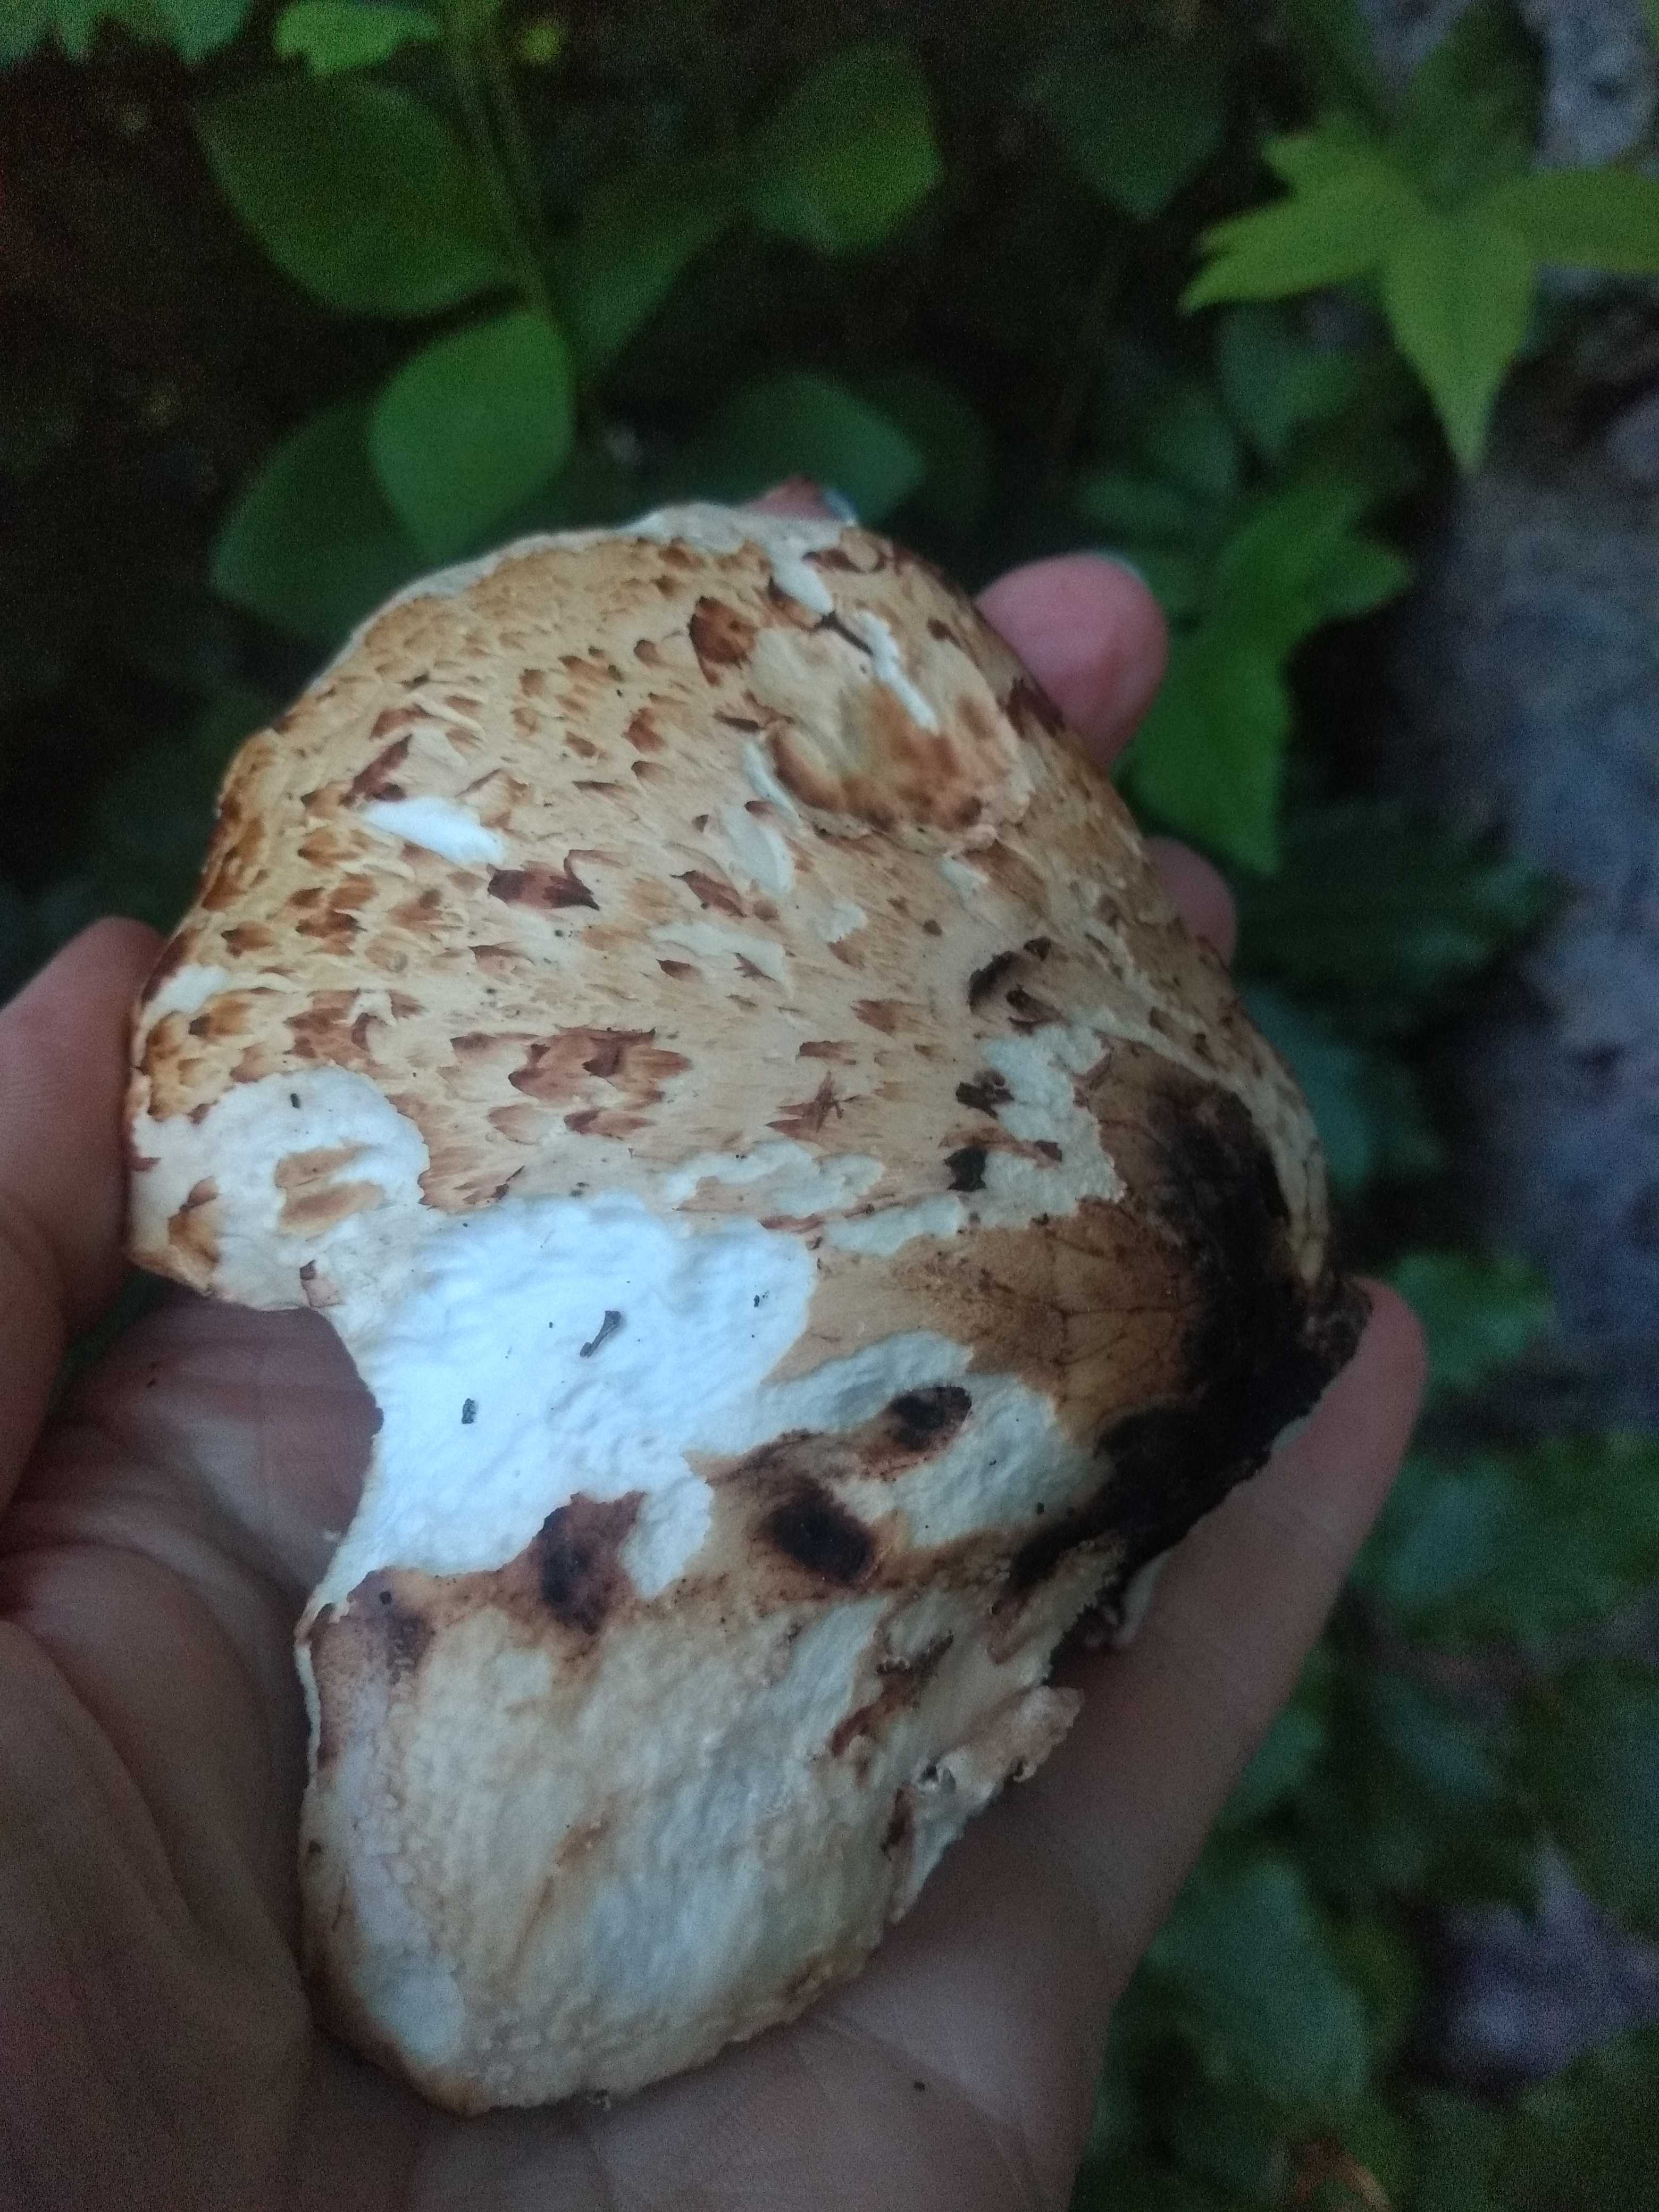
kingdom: Fungi
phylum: Basidiomycota
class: Agaricomycetes
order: Polyporales
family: Polyporaceae
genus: Cerioporus
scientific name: Cerioporus squamosus
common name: skællet stilkporesvamp
